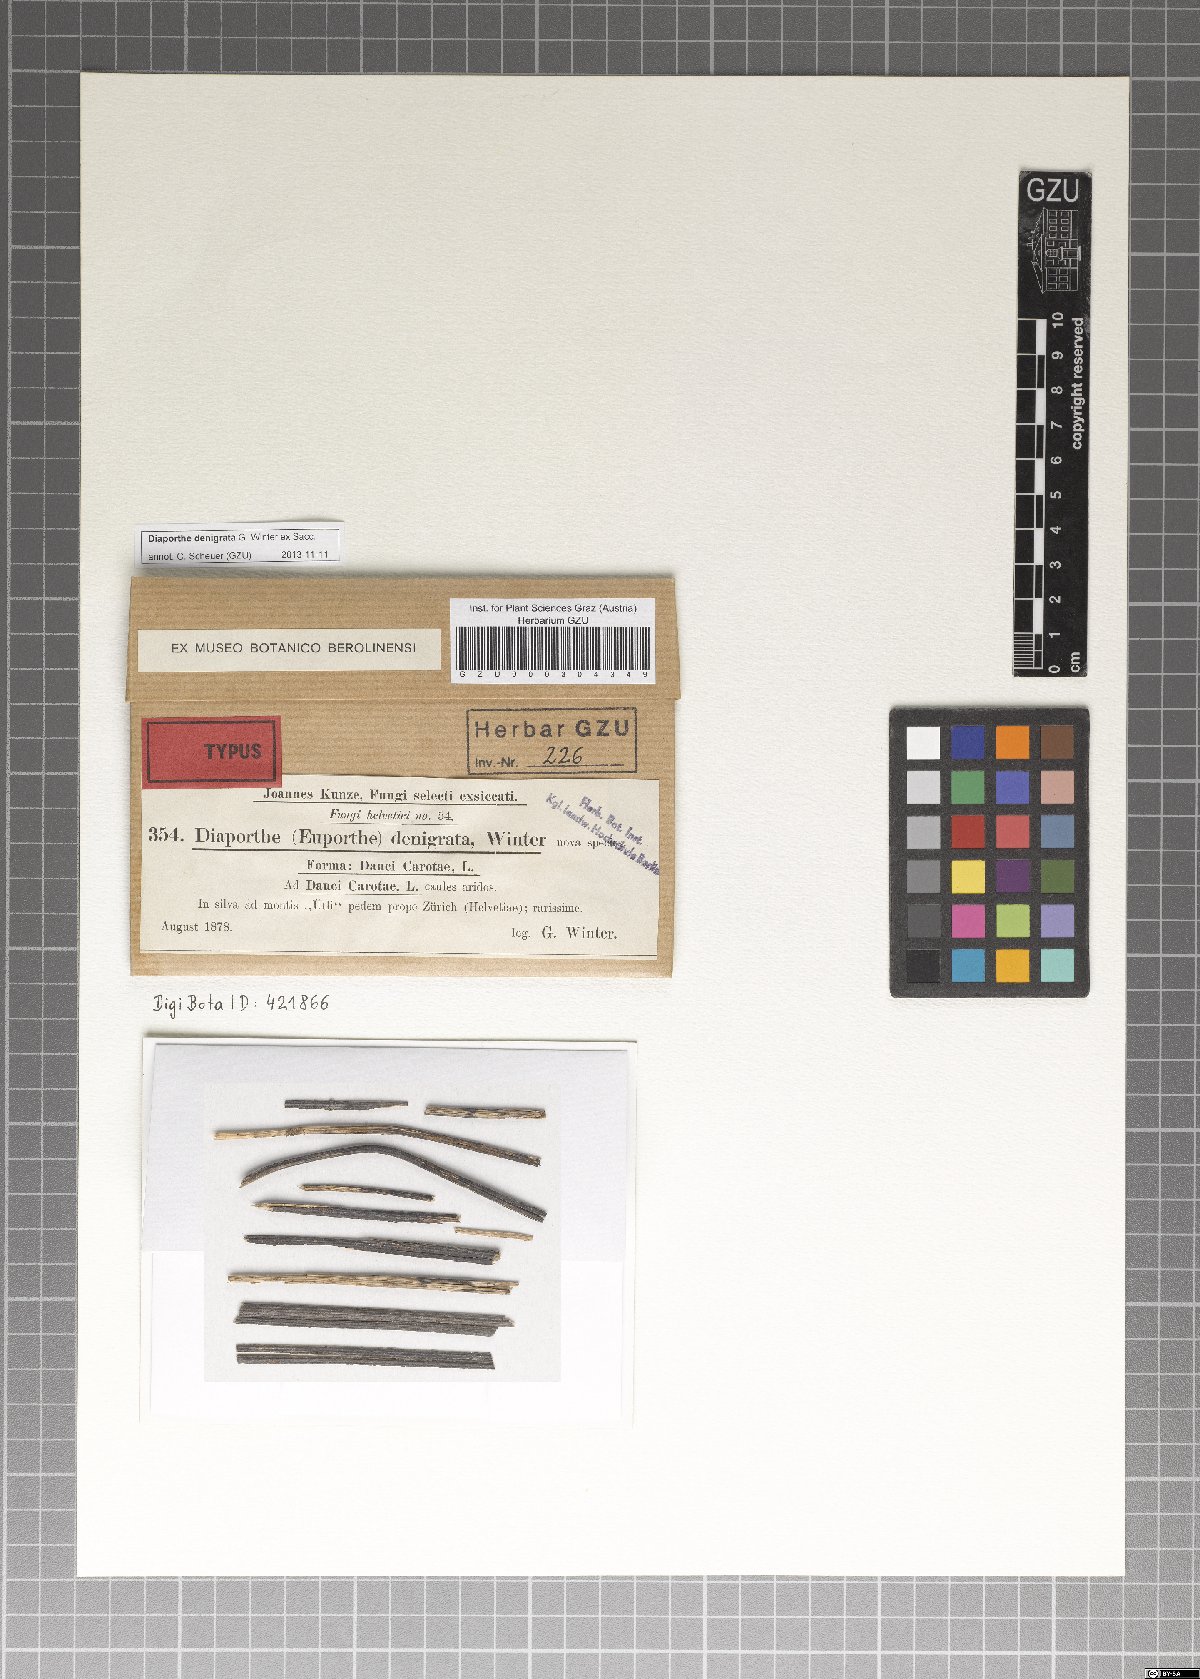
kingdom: Fungi
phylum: Ascomycota
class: Sordariomycetes
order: Diaporthales
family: Valsaceae
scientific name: Valsaceae
